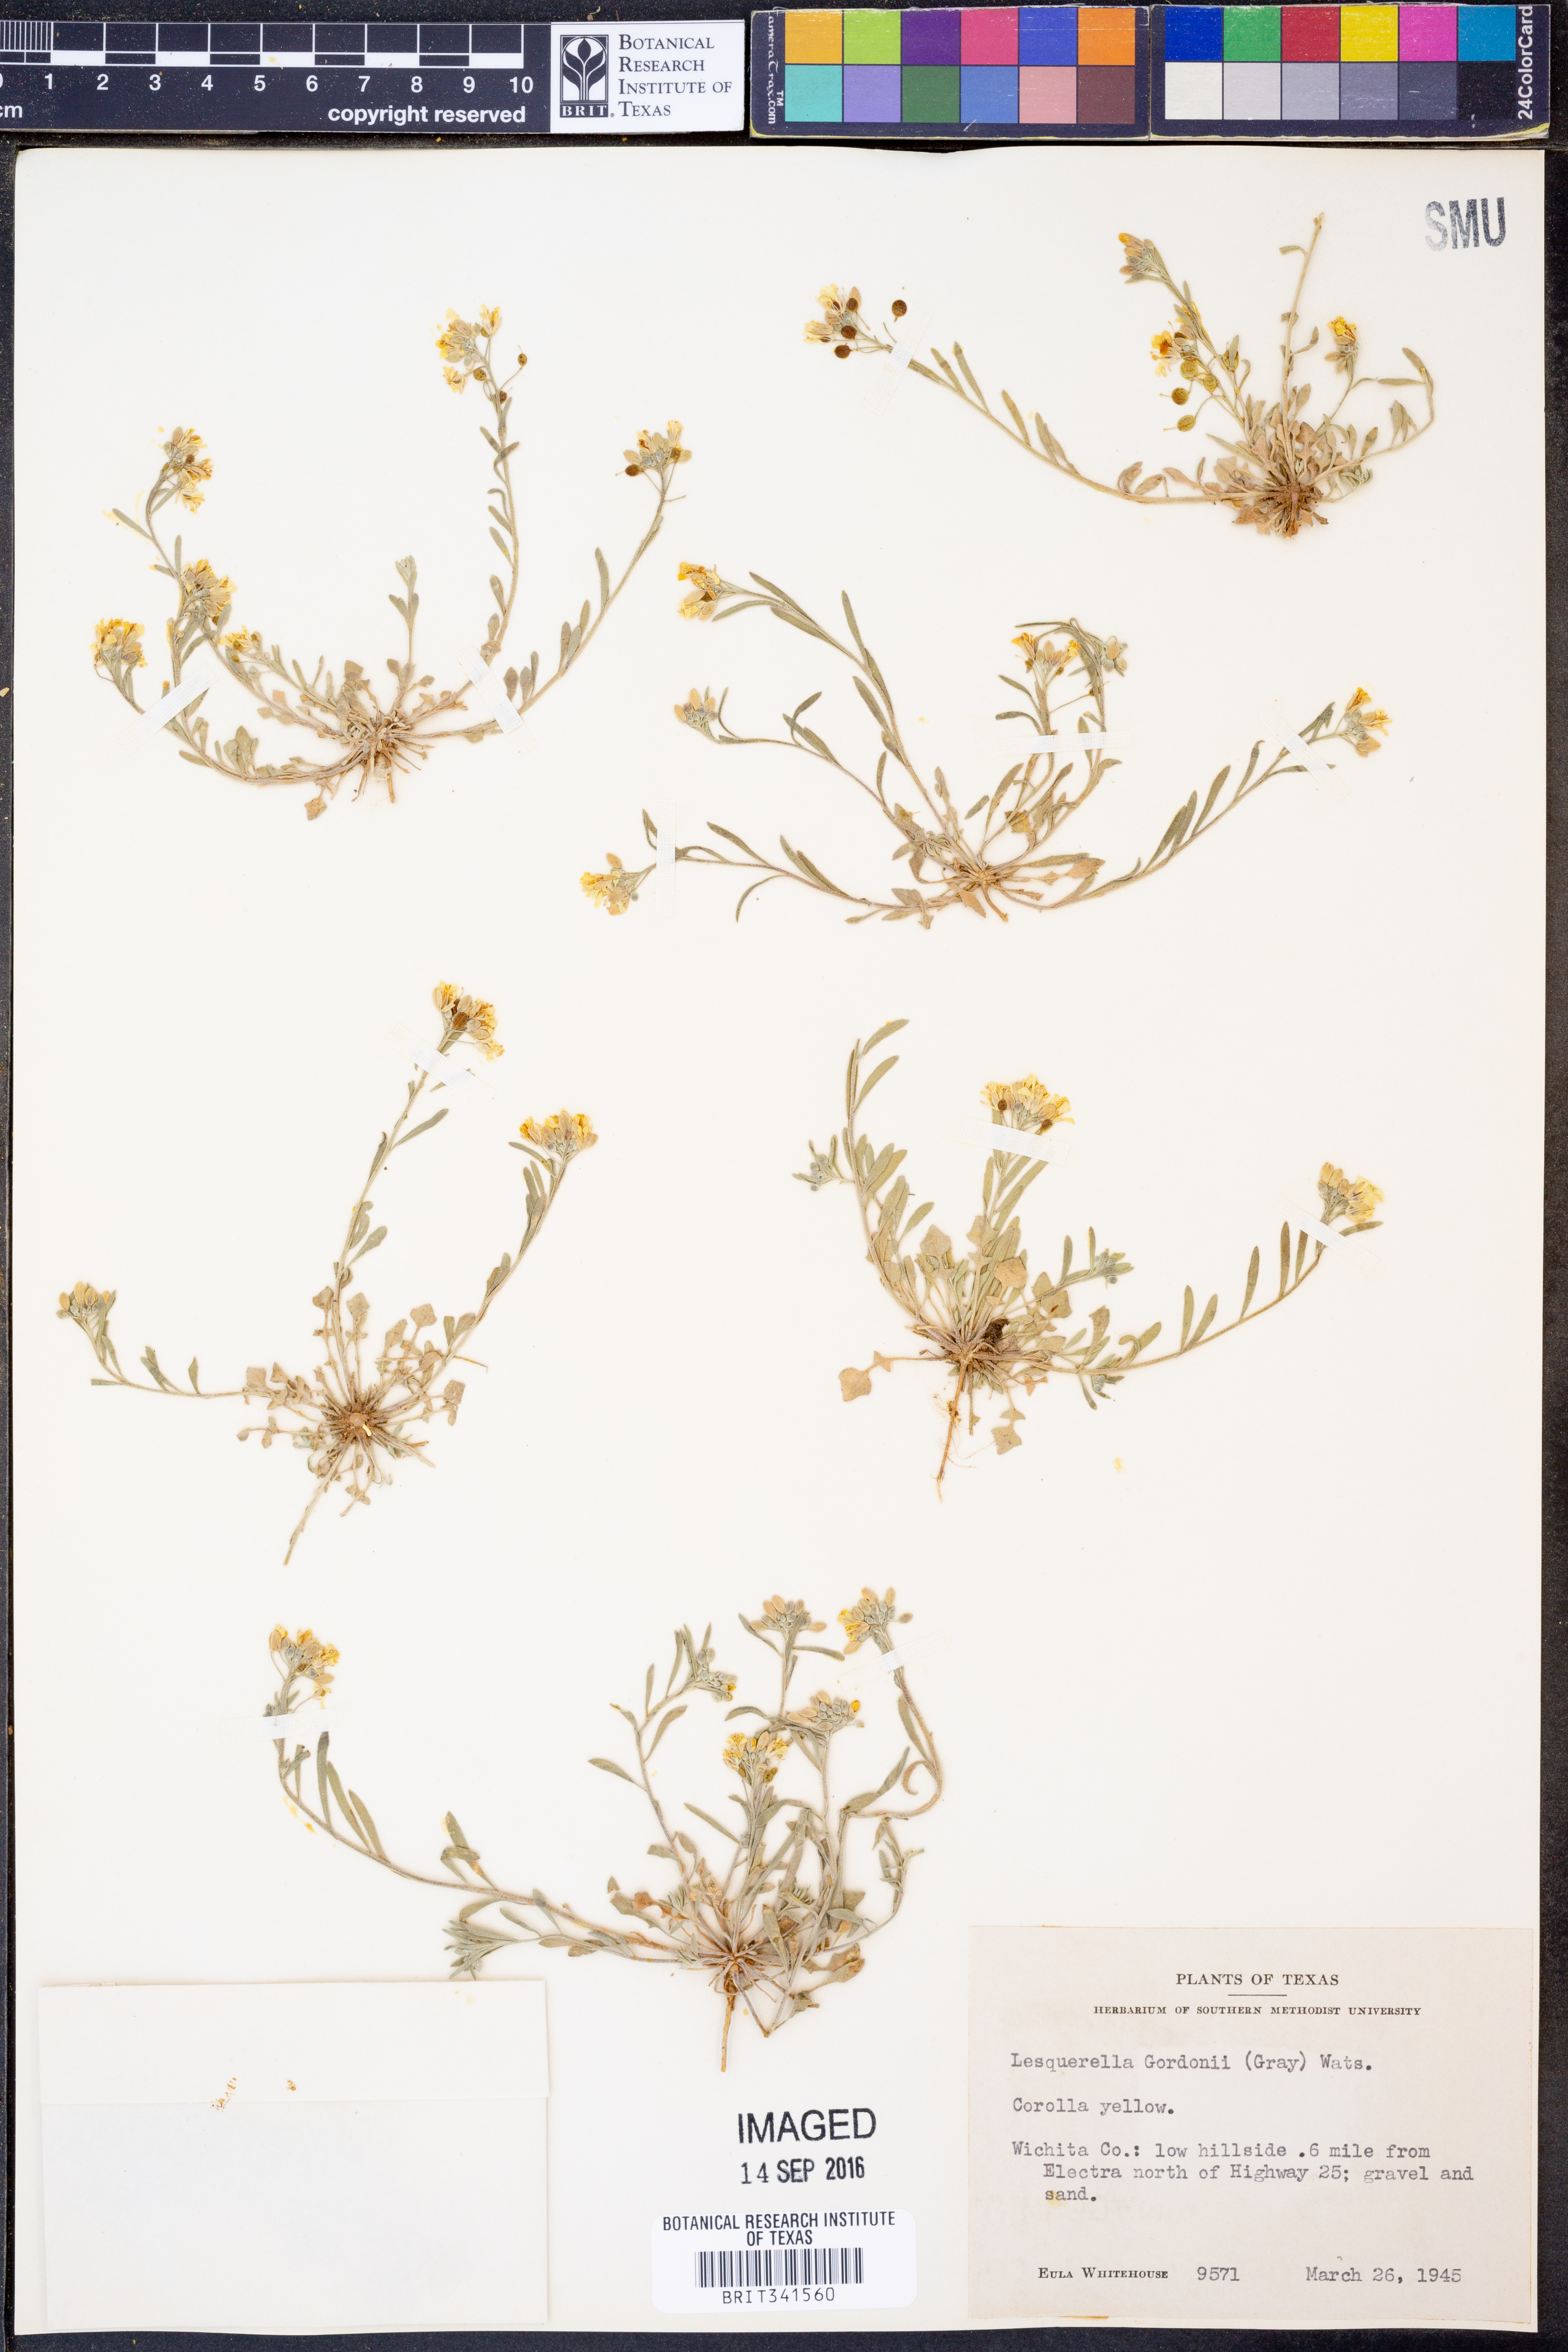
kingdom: Plantae
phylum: Tracheophyta
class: Magnoliopsida
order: Brassicales
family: Brassicaceae
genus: Physaria
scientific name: Physaria gordonii
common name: Gordon's bladderpod
